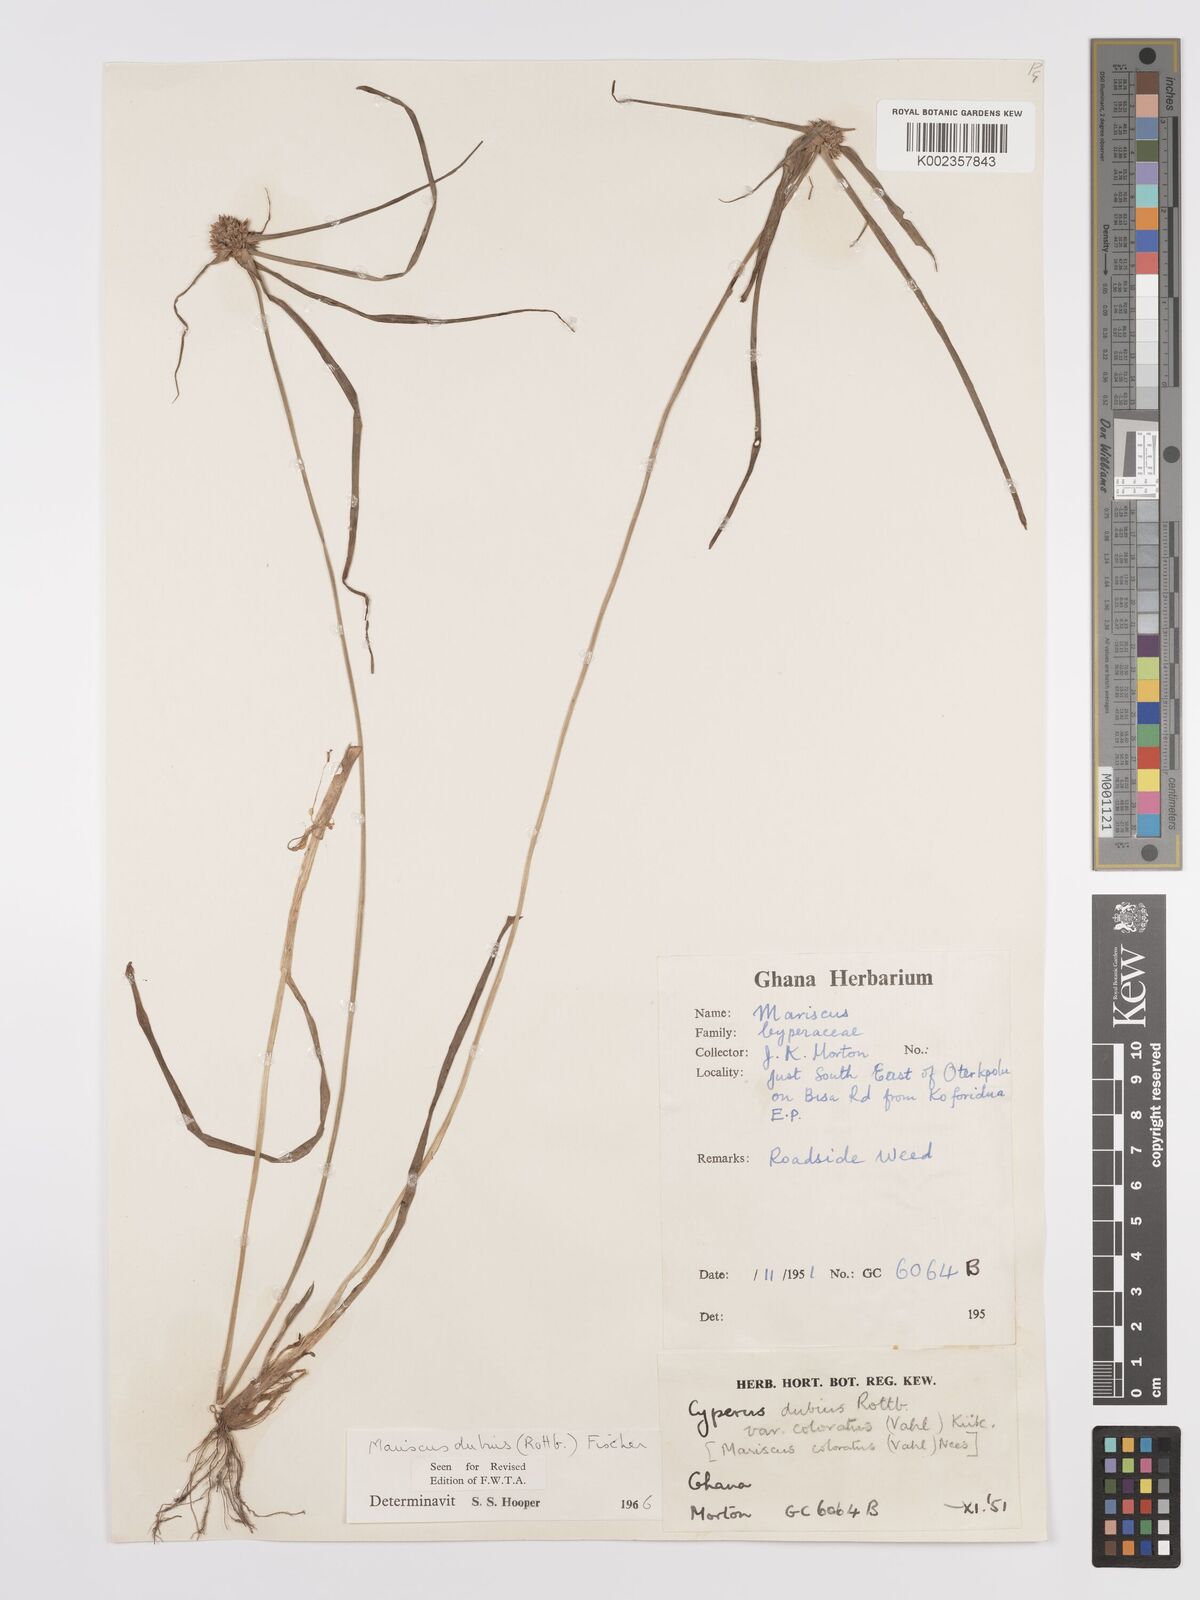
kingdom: Plantae
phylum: Tracheophyta
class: Liliopsida
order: Poales
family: Cyperaceae
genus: Cyperus
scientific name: Cyperus dubius
